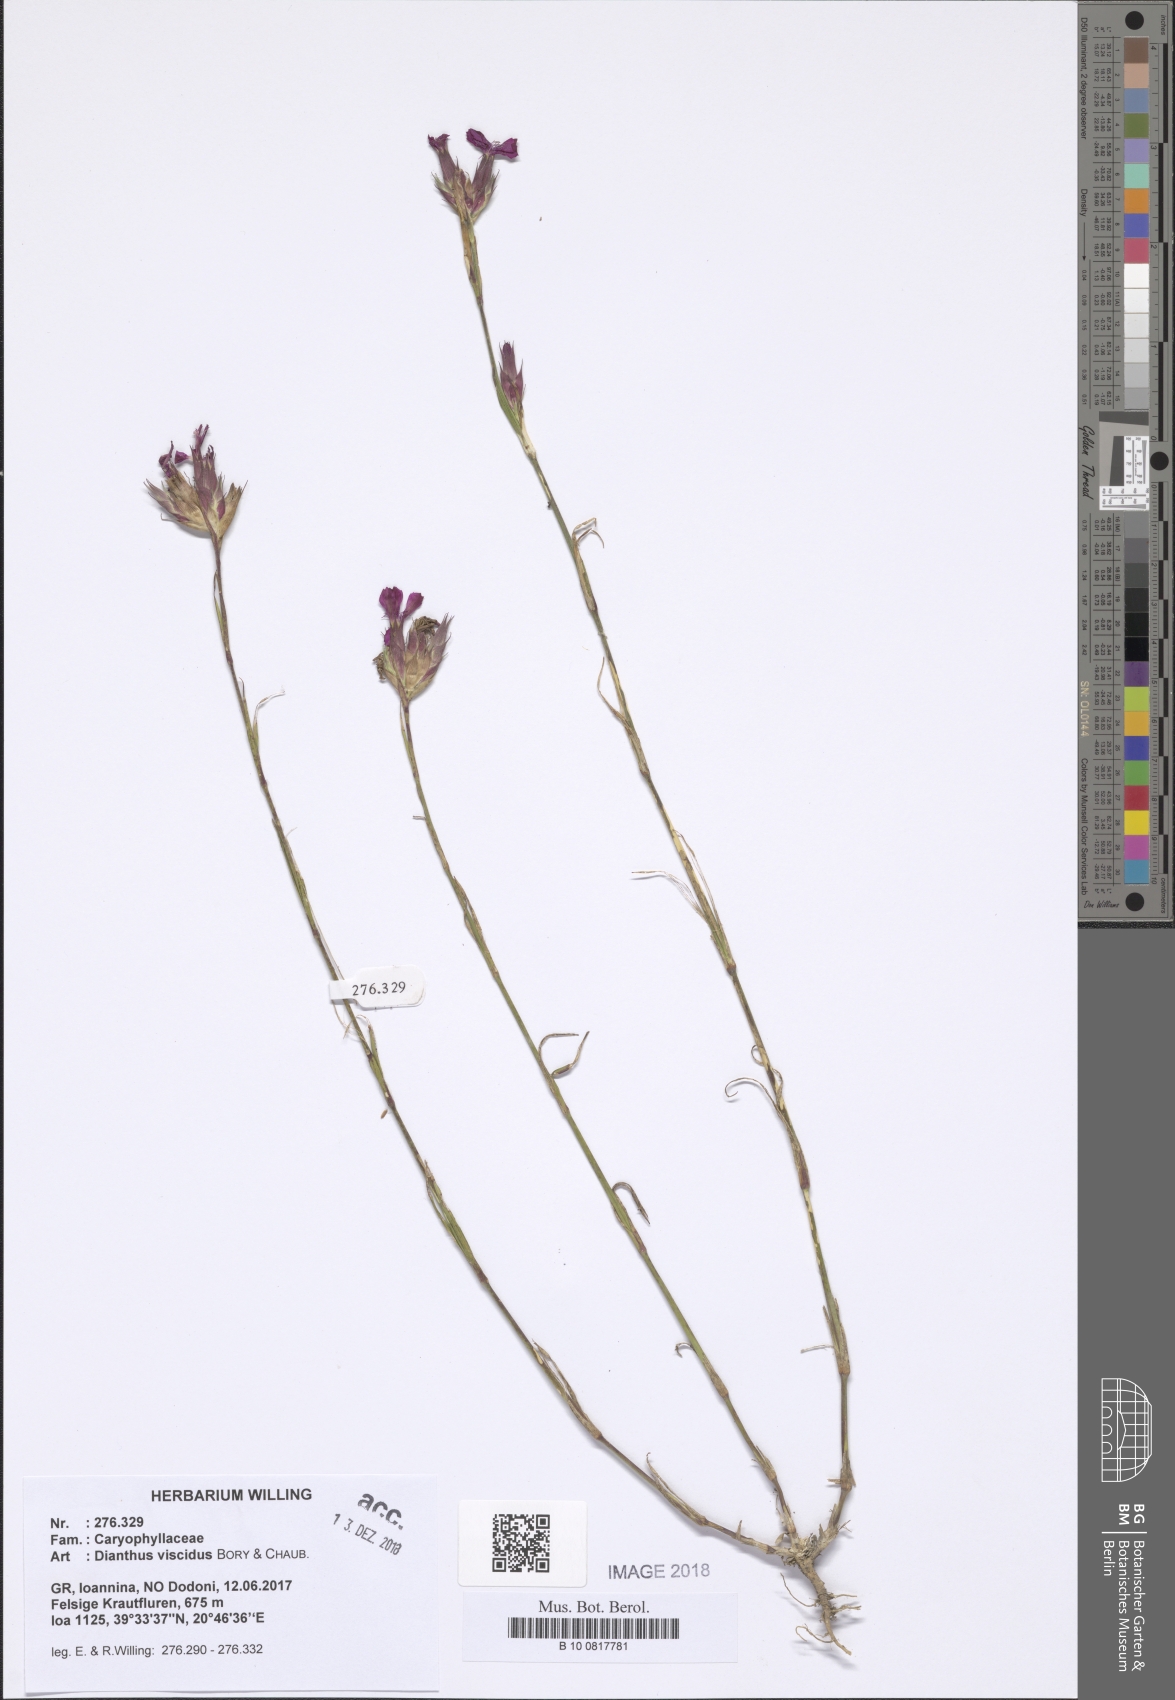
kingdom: Plantae
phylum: Tracheophyta
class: Magnoliopsida
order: Caryophyllales
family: Caryophyllaceae
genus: Dianthus
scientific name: Dianthus viscidus
